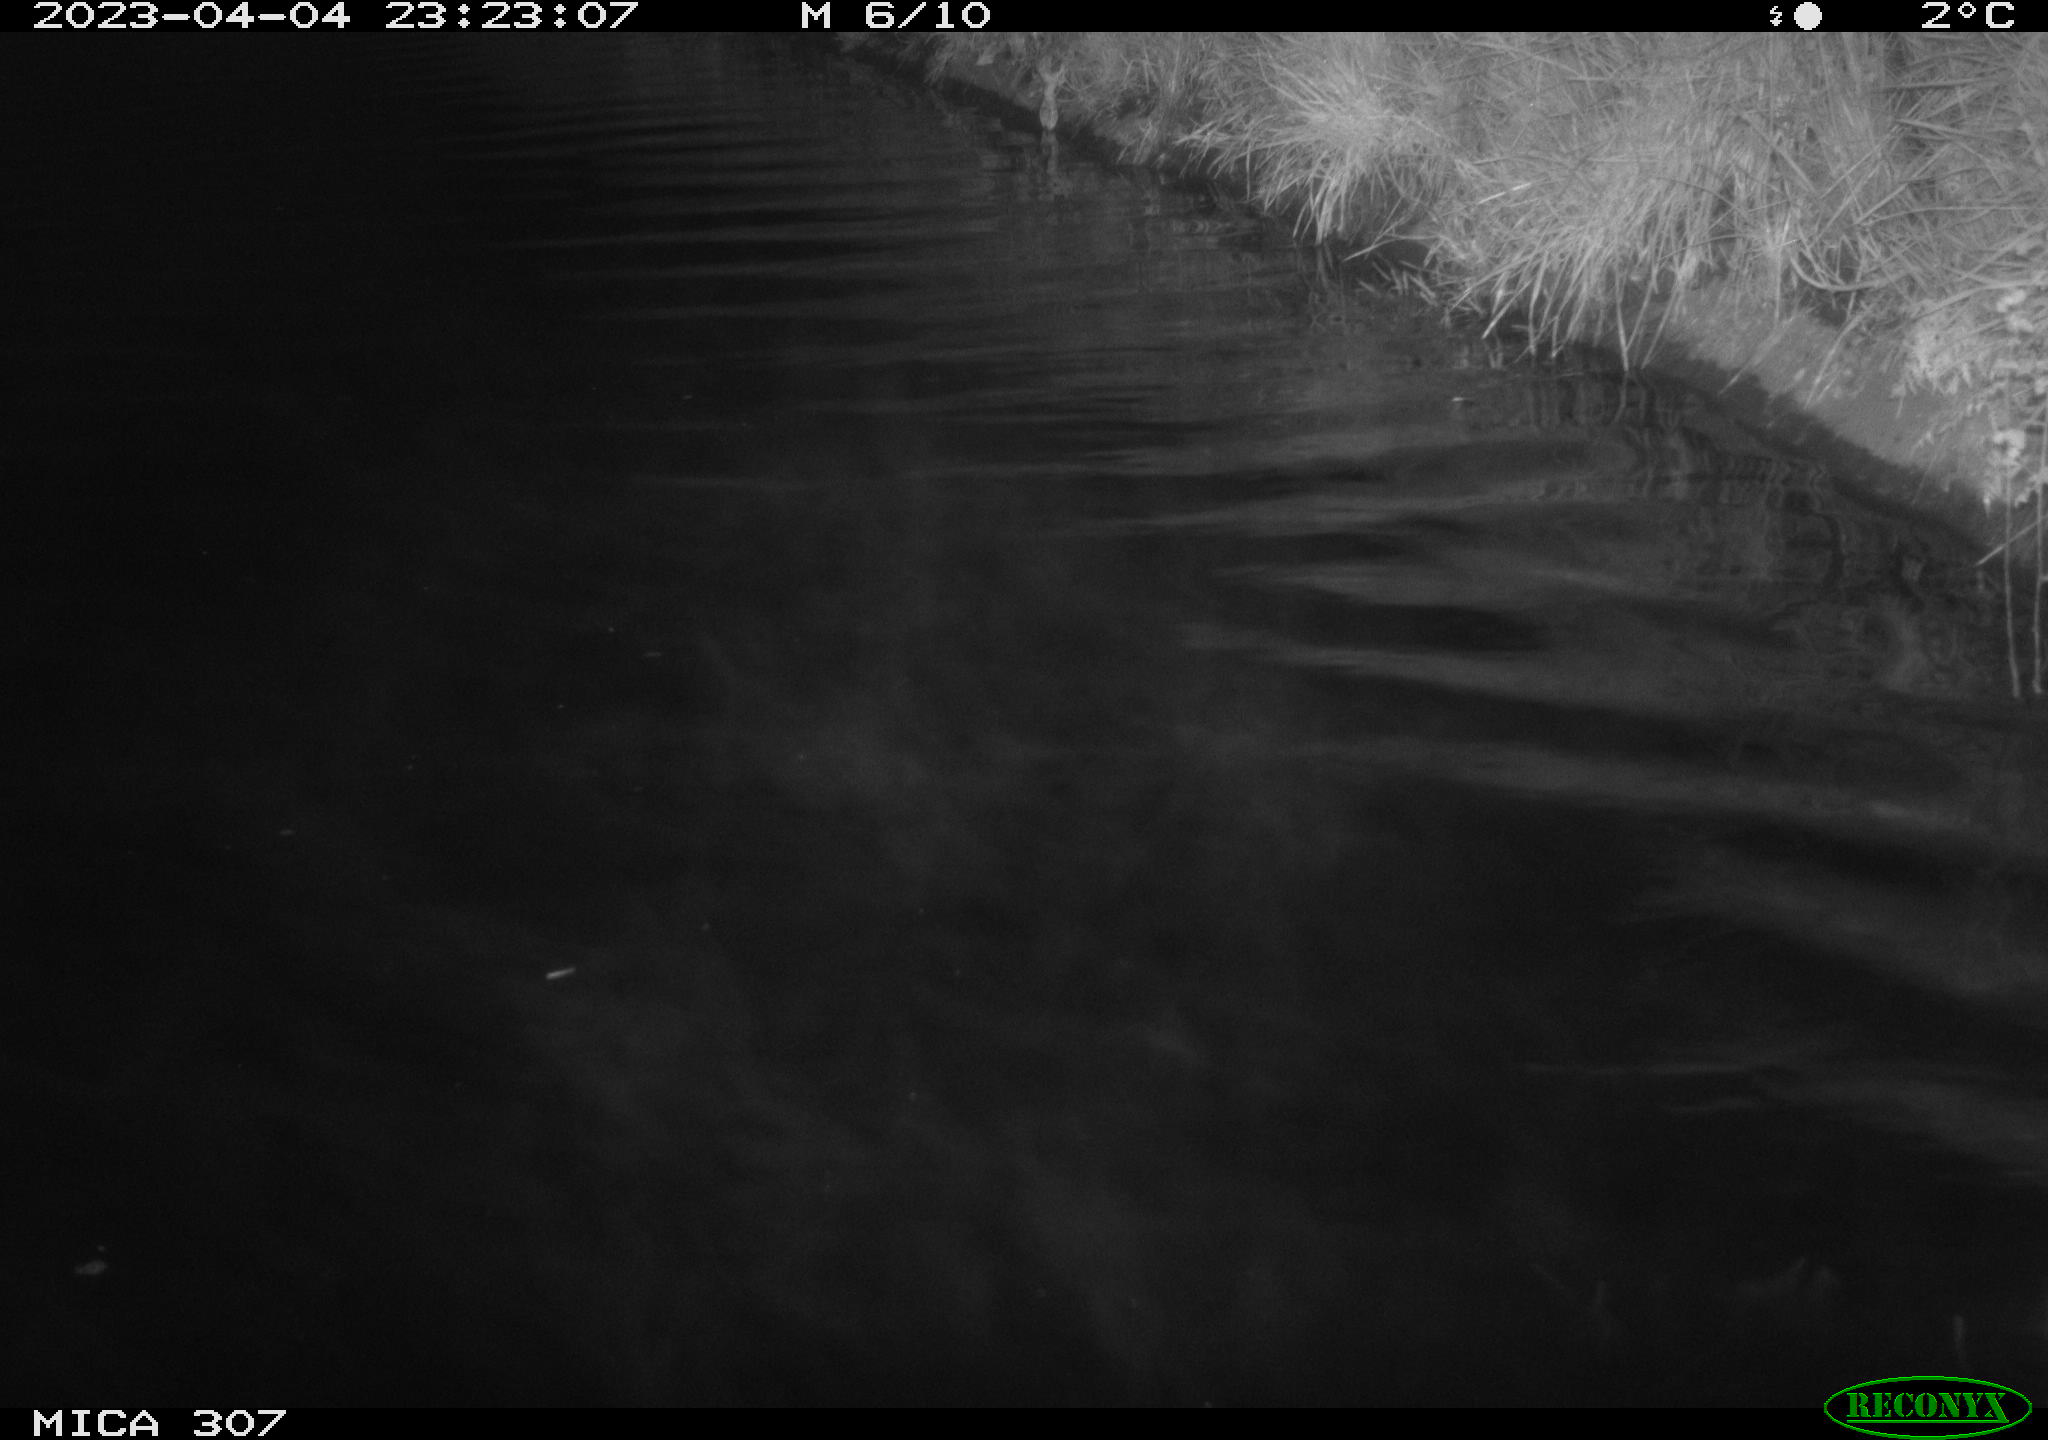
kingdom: Animalia
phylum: Chordata
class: Mammalia
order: Rodentia
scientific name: Rodentia
